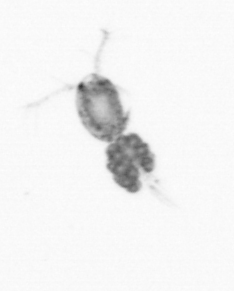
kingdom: Animalia
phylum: Arthropoda
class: Copepoda
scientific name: Copepoda
